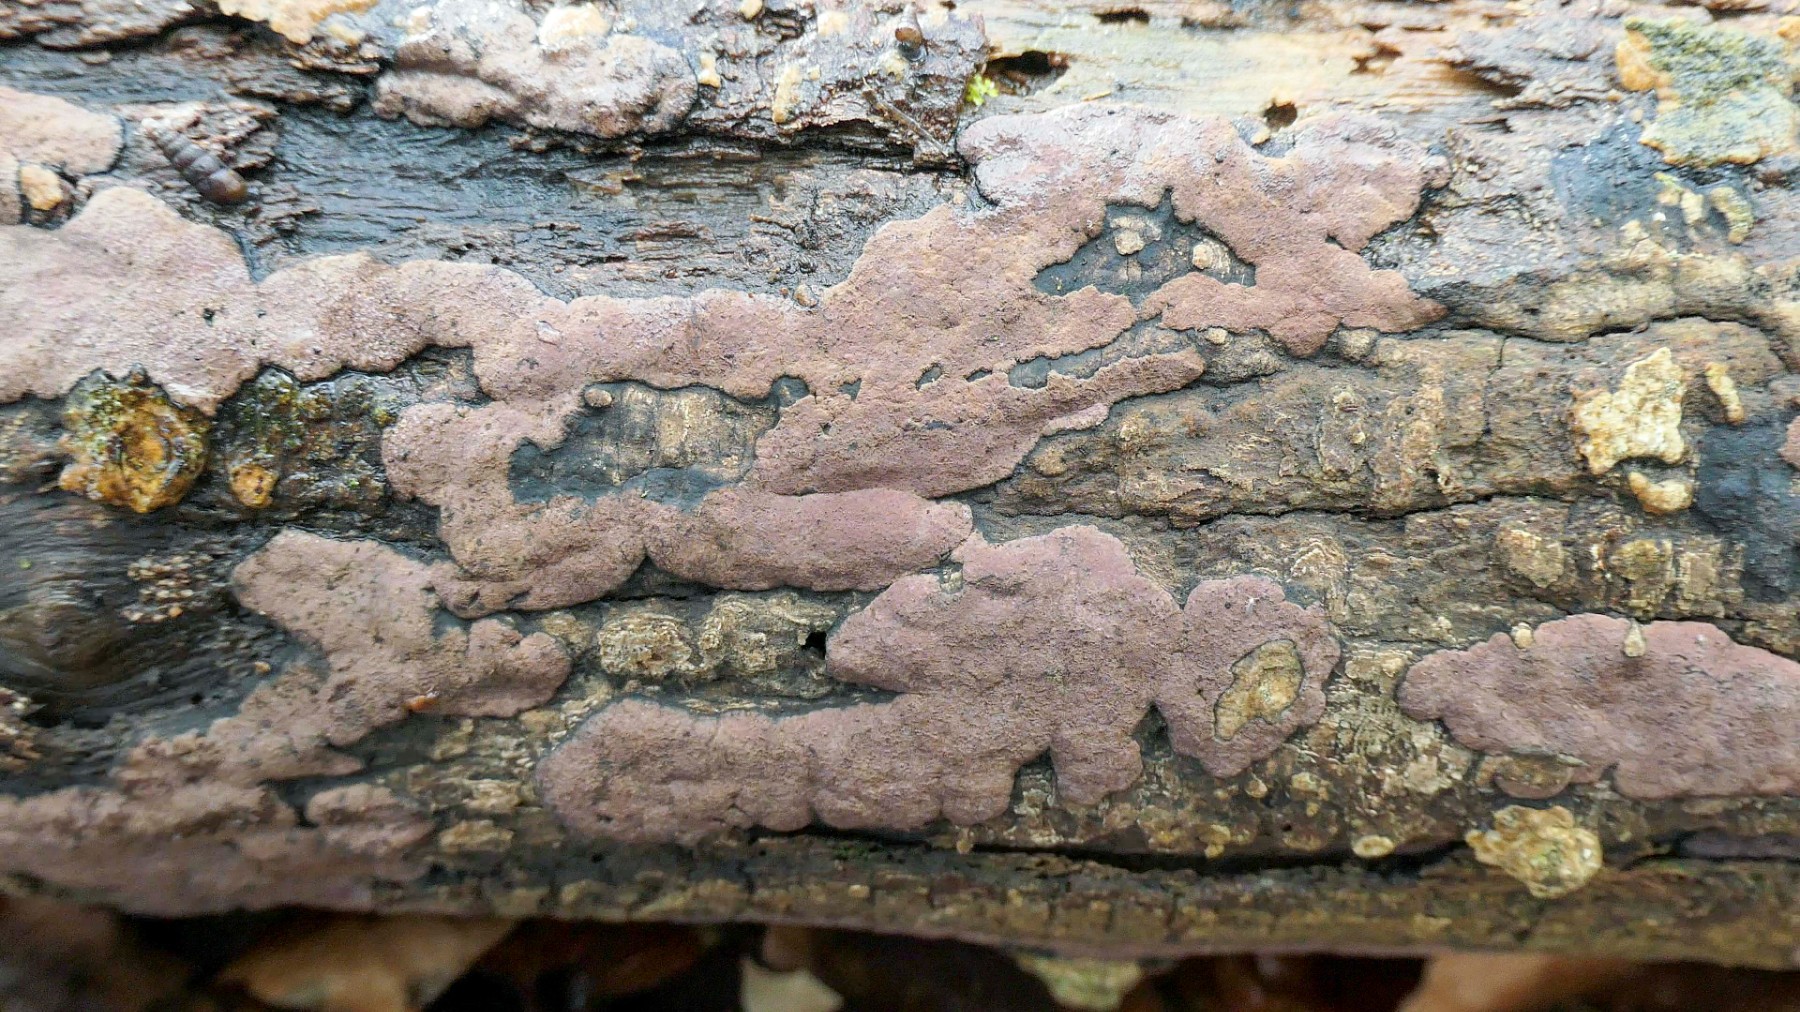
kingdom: Fungi
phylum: Ascomycota
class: Sordariomycetes
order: Xylariales
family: Hypoxylaceae
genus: Hypoxylon
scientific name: Hypoxylon petriniae
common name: nedsænket kulbær
